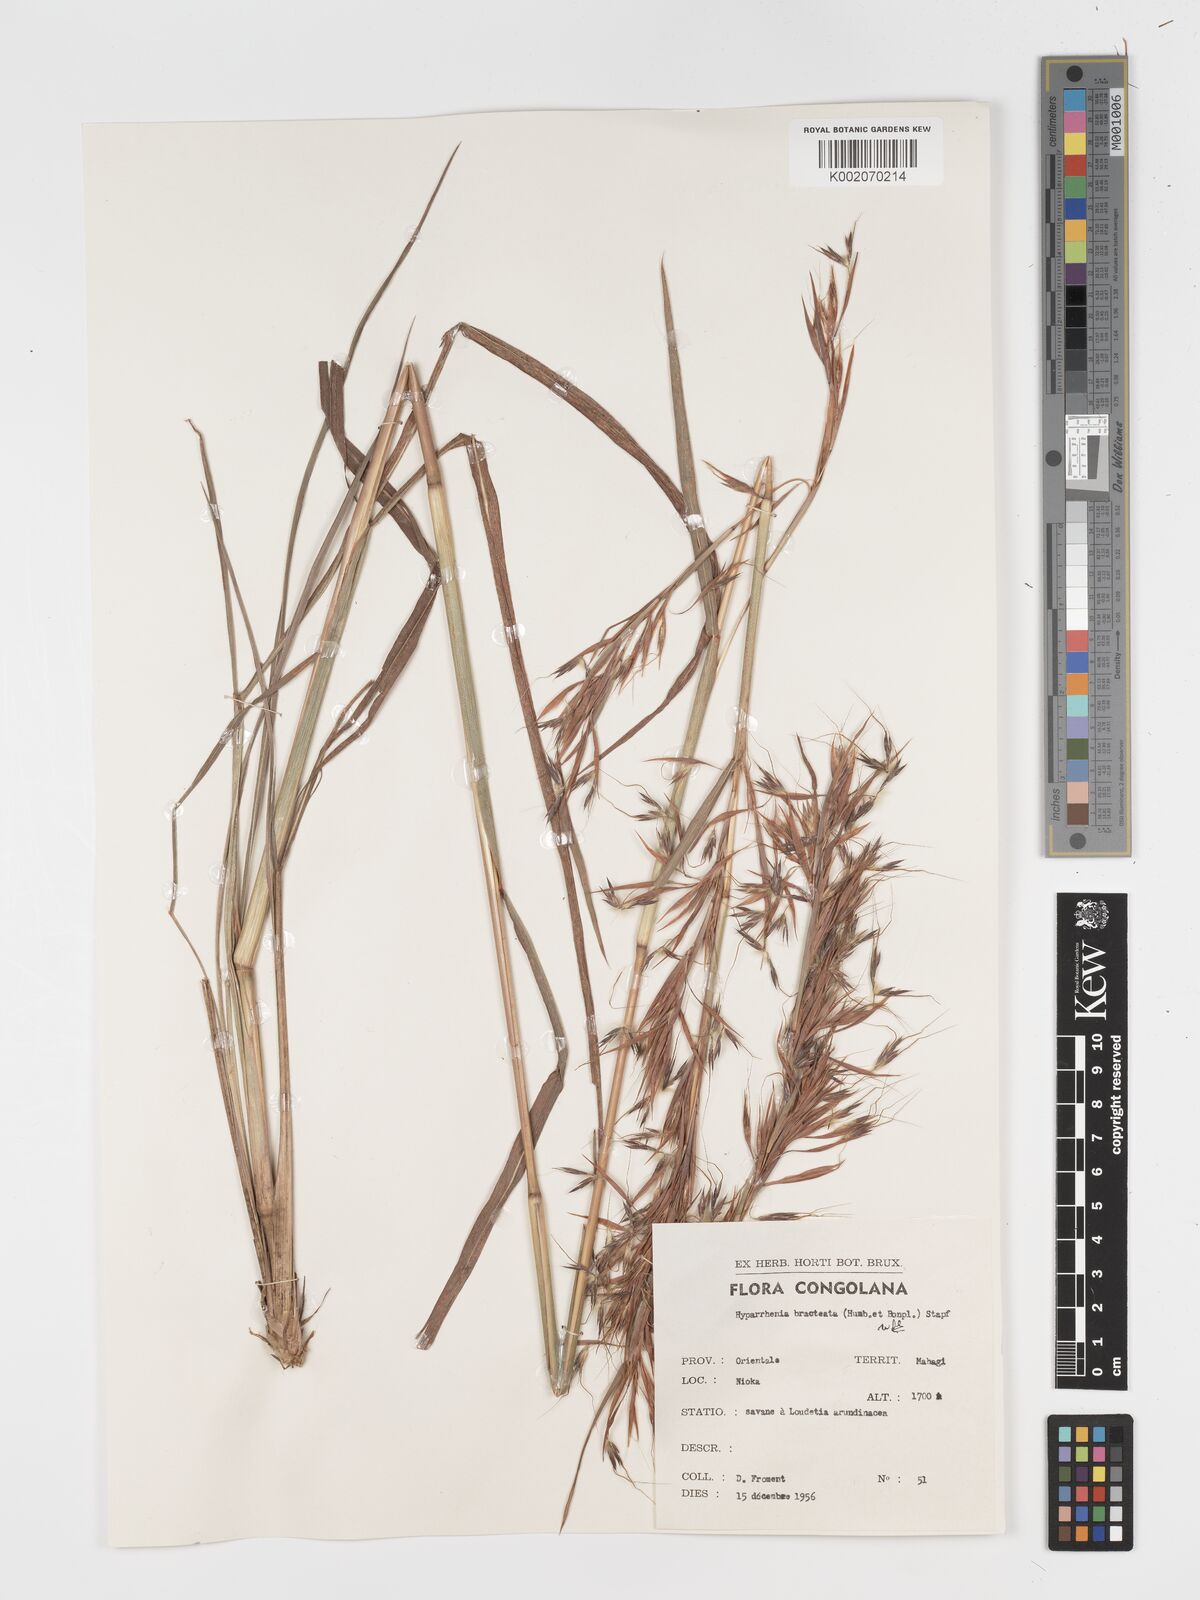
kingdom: Plantae
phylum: Tracheophyta
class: Liliopsida
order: Poales
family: Poaceae
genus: Hyparrhenia
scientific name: Hyparrhenia bracteata
